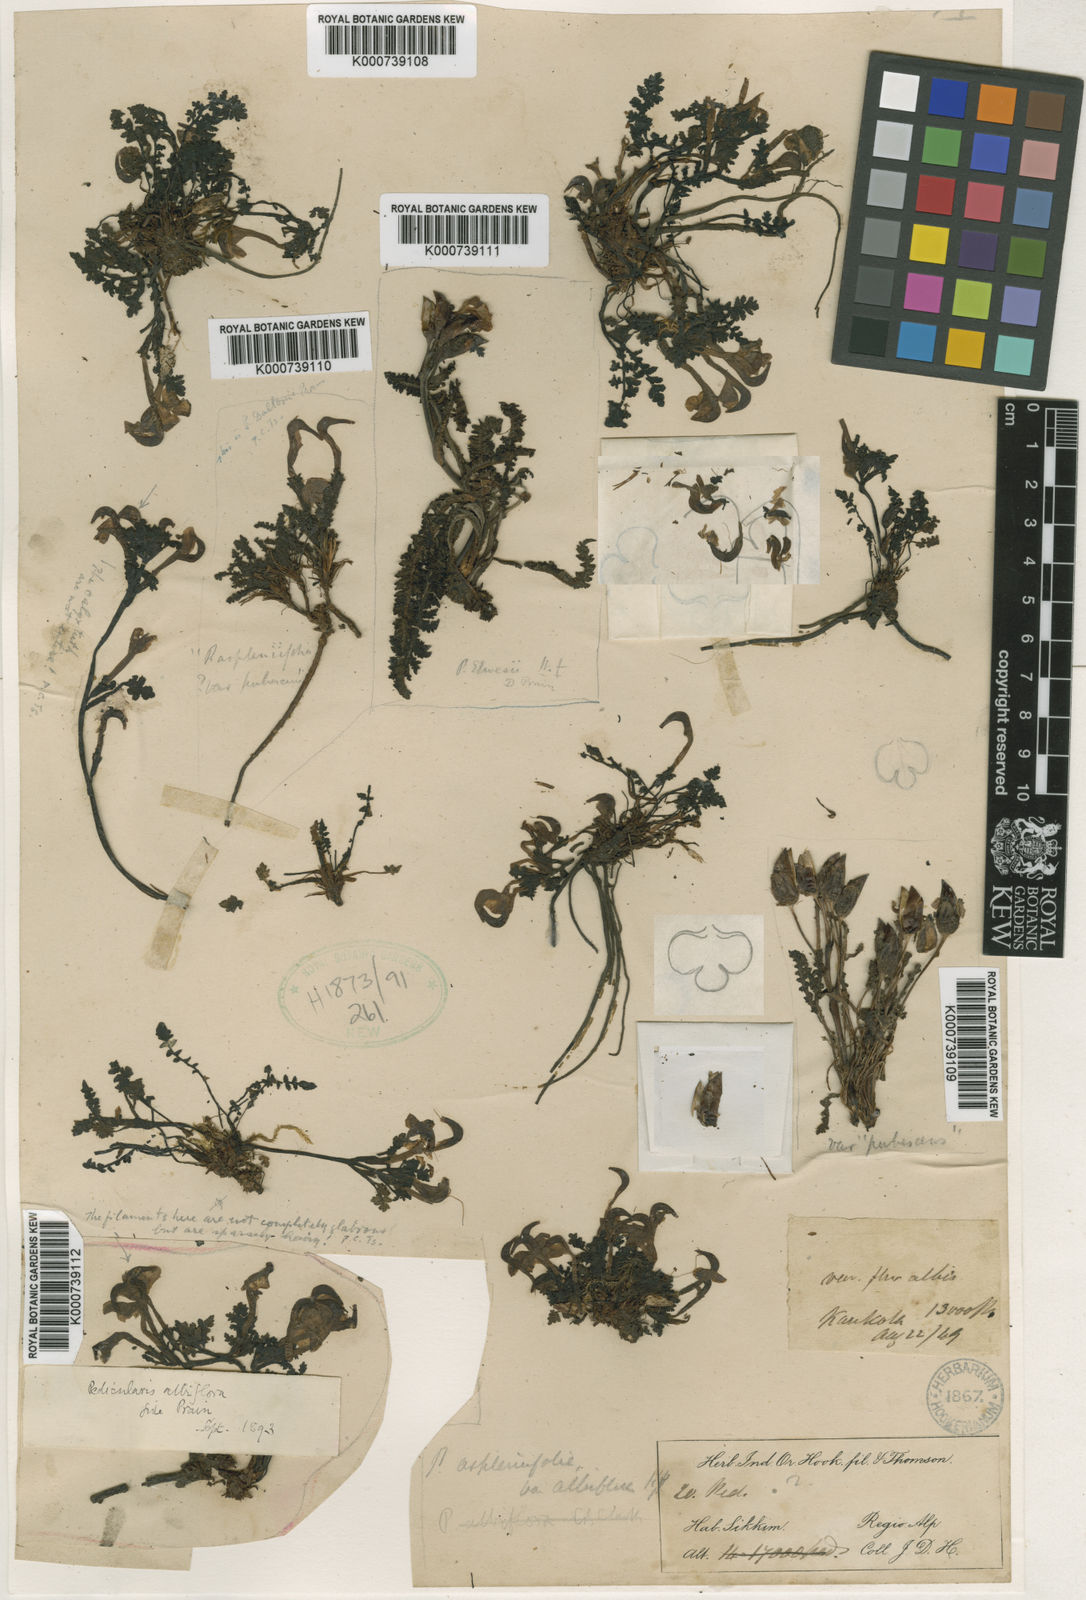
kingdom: Plantae
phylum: Tracheophyta
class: Magnoliopsida
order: Lamiales
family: Orobanchaceae
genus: Pedicularis
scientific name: Pedicularis
